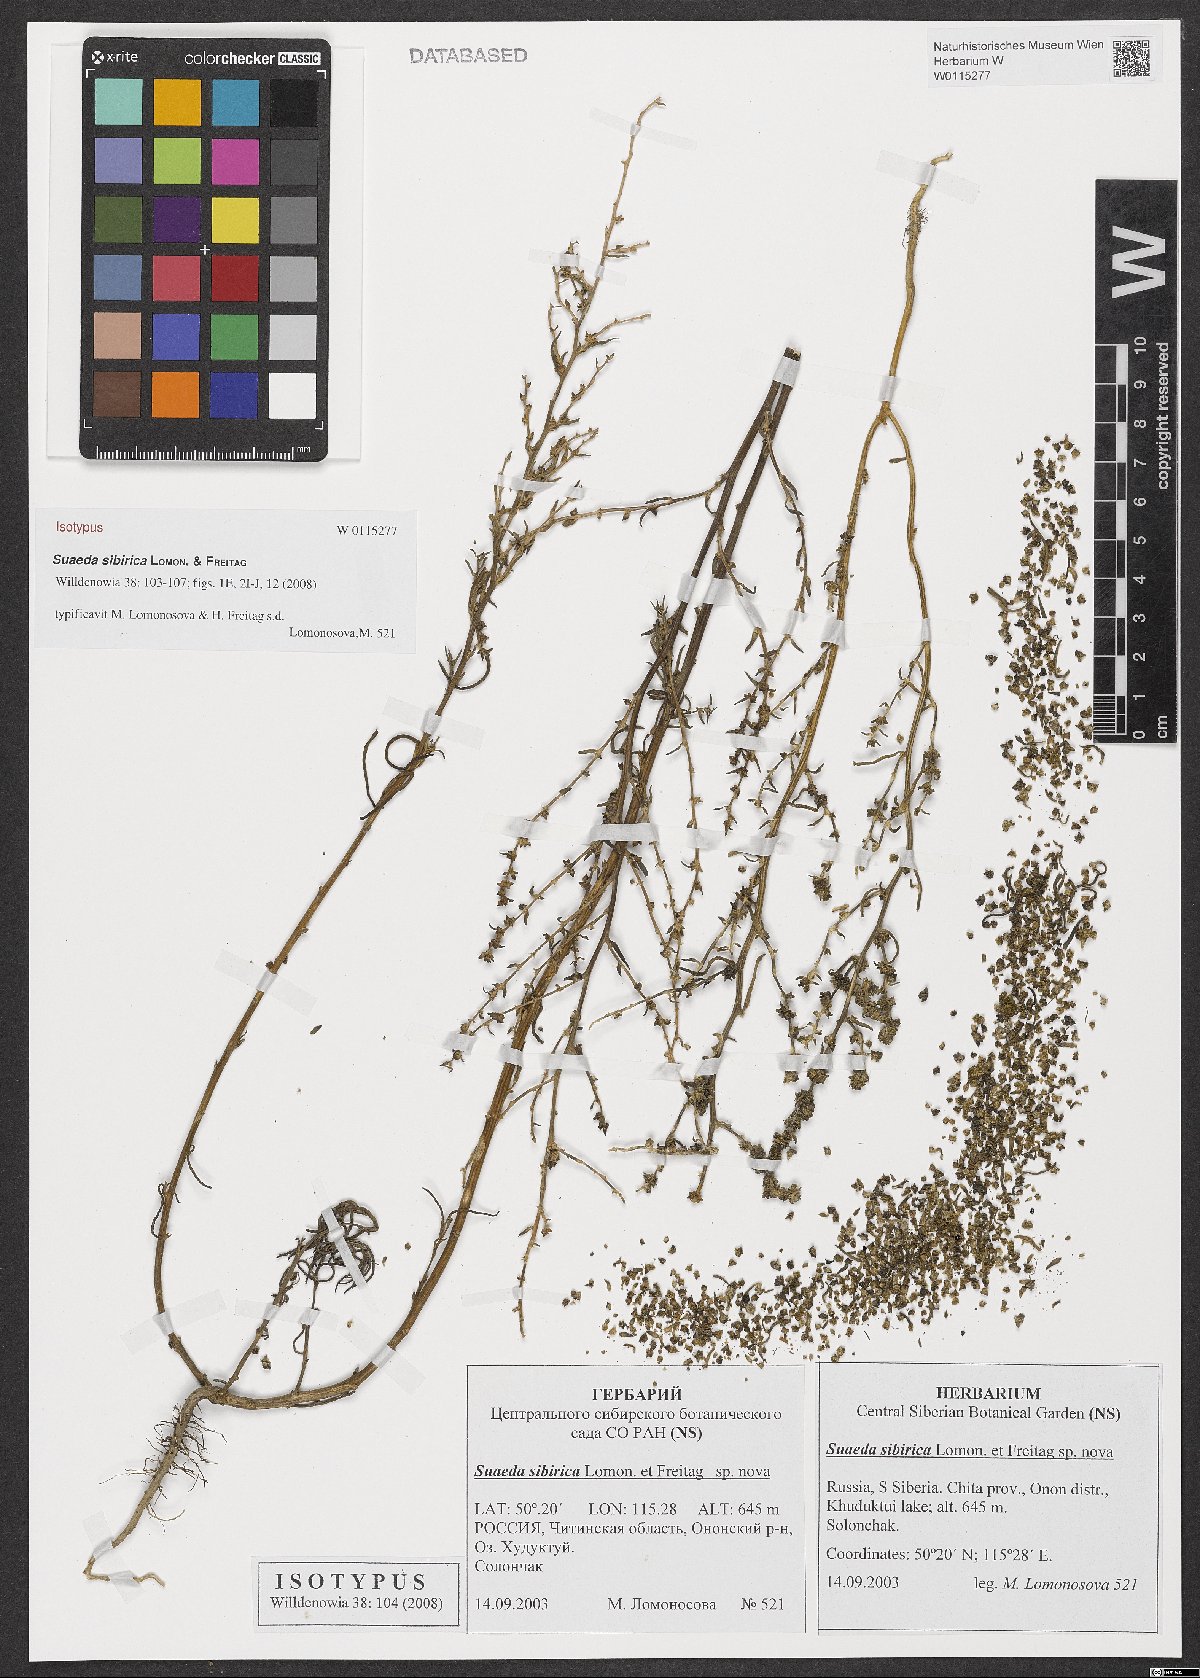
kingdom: Plantae
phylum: Tracheophyta
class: Magnoliopsida
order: Caryophyllales
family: Amaranthaceae
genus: Suaeda
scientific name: Suaeda sibirica
